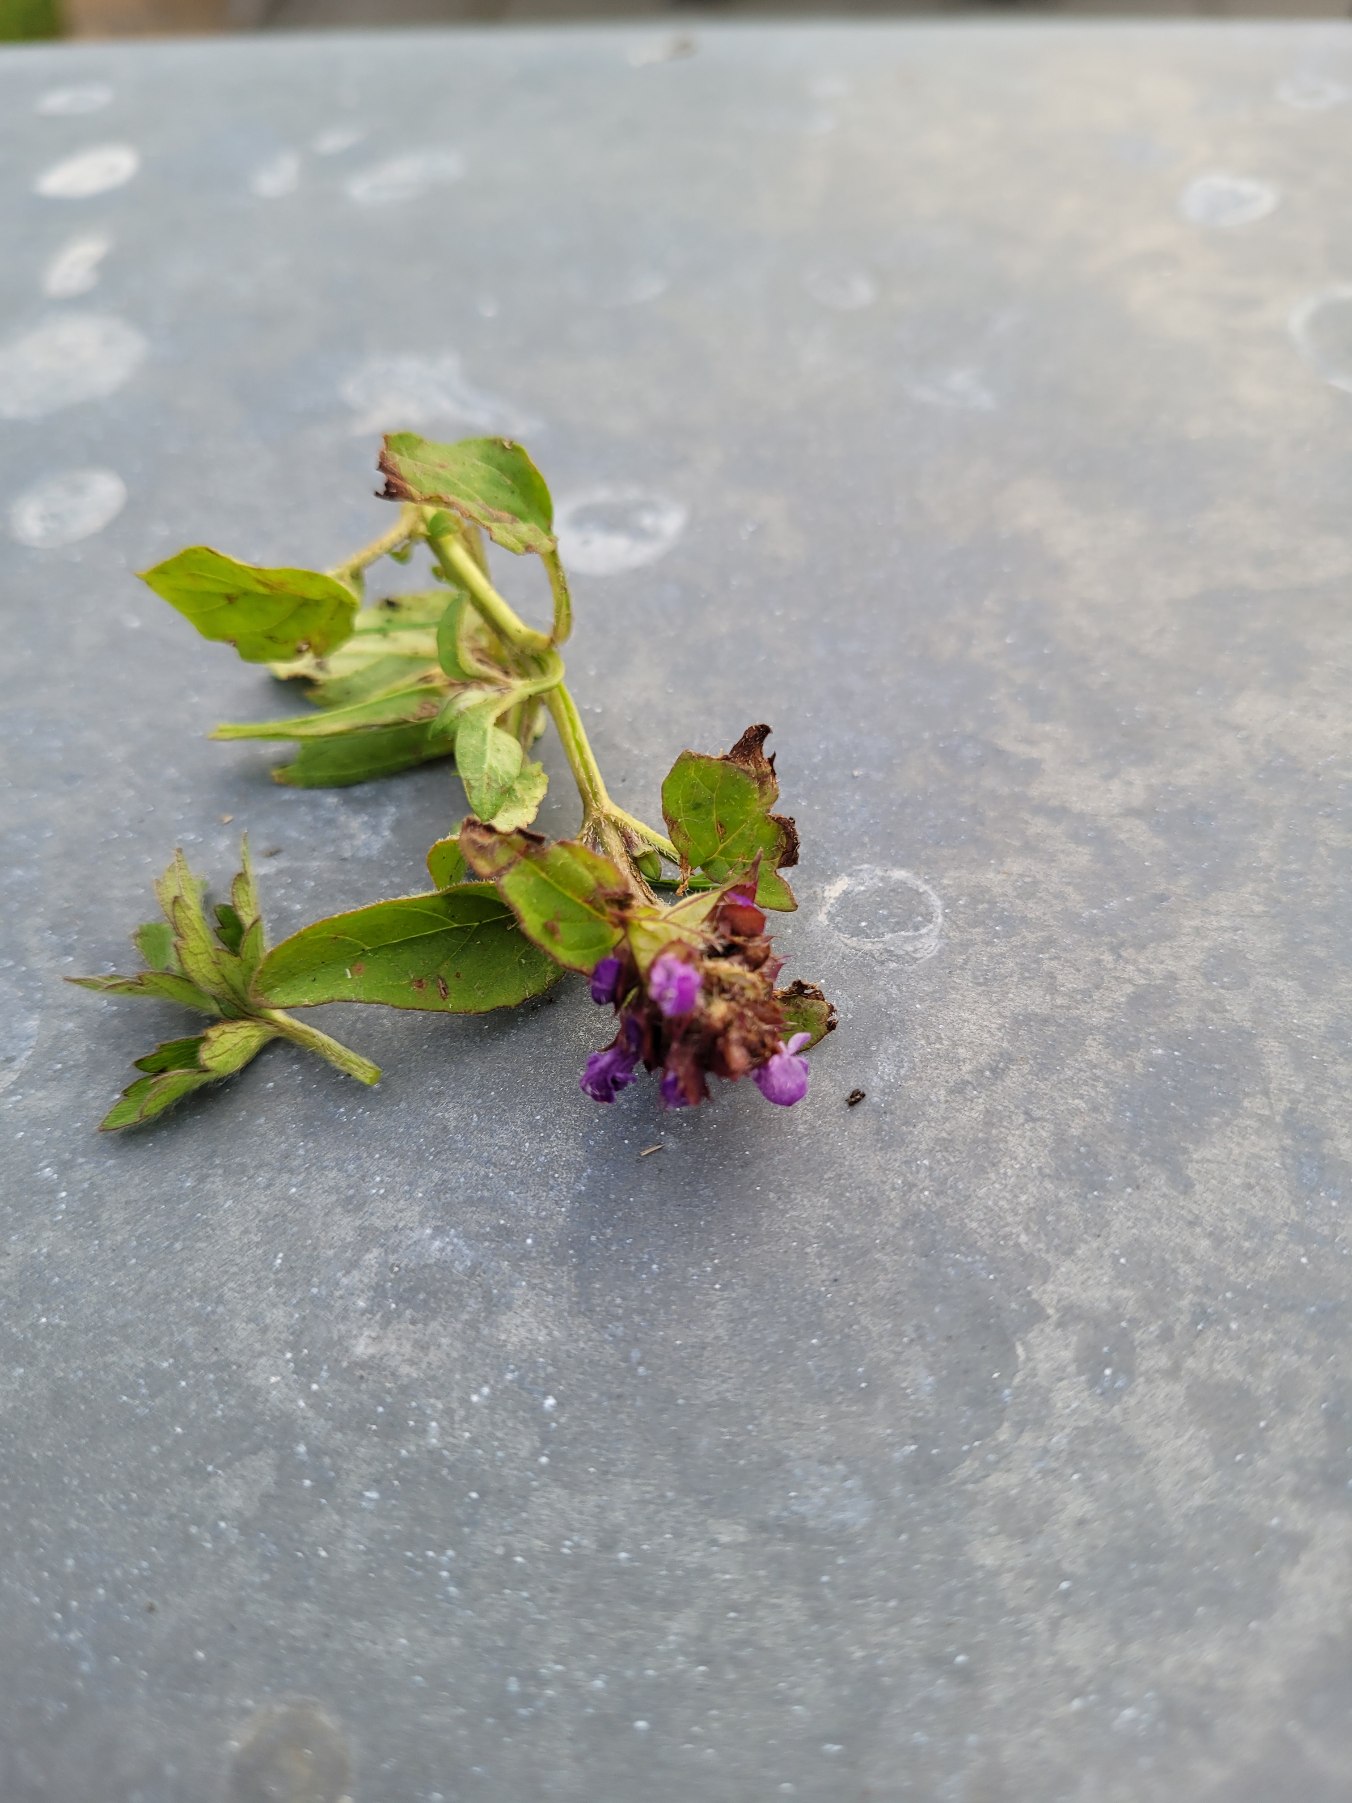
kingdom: Plantae
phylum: Tracheophyta
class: Magnoliopsida
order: Lamiales
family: Lamiaceae
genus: Prunella
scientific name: Prunella vulgaris
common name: Almindelig brunelle
